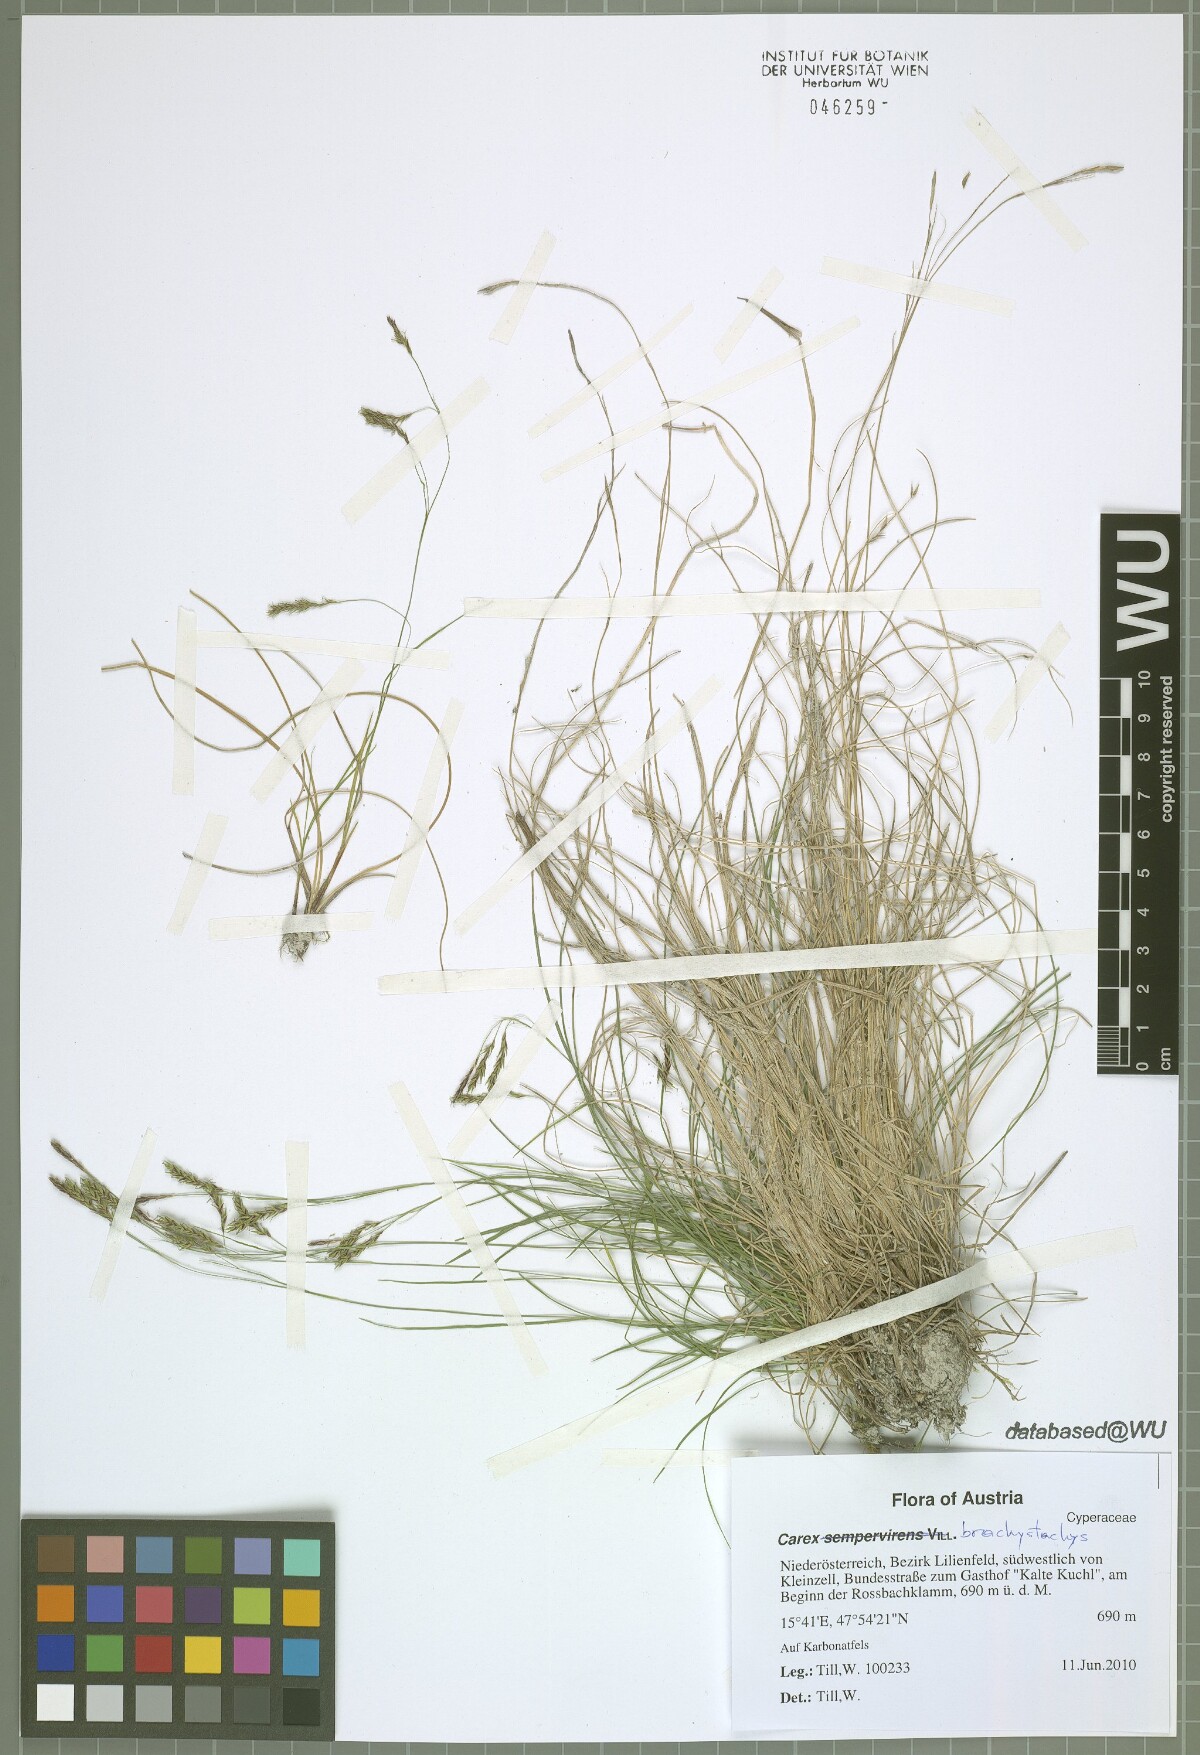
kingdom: Plantae
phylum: Tracheophyta
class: Liliopsida
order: Poales
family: Cyperaceae
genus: Carex
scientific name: Carex brachystachys
